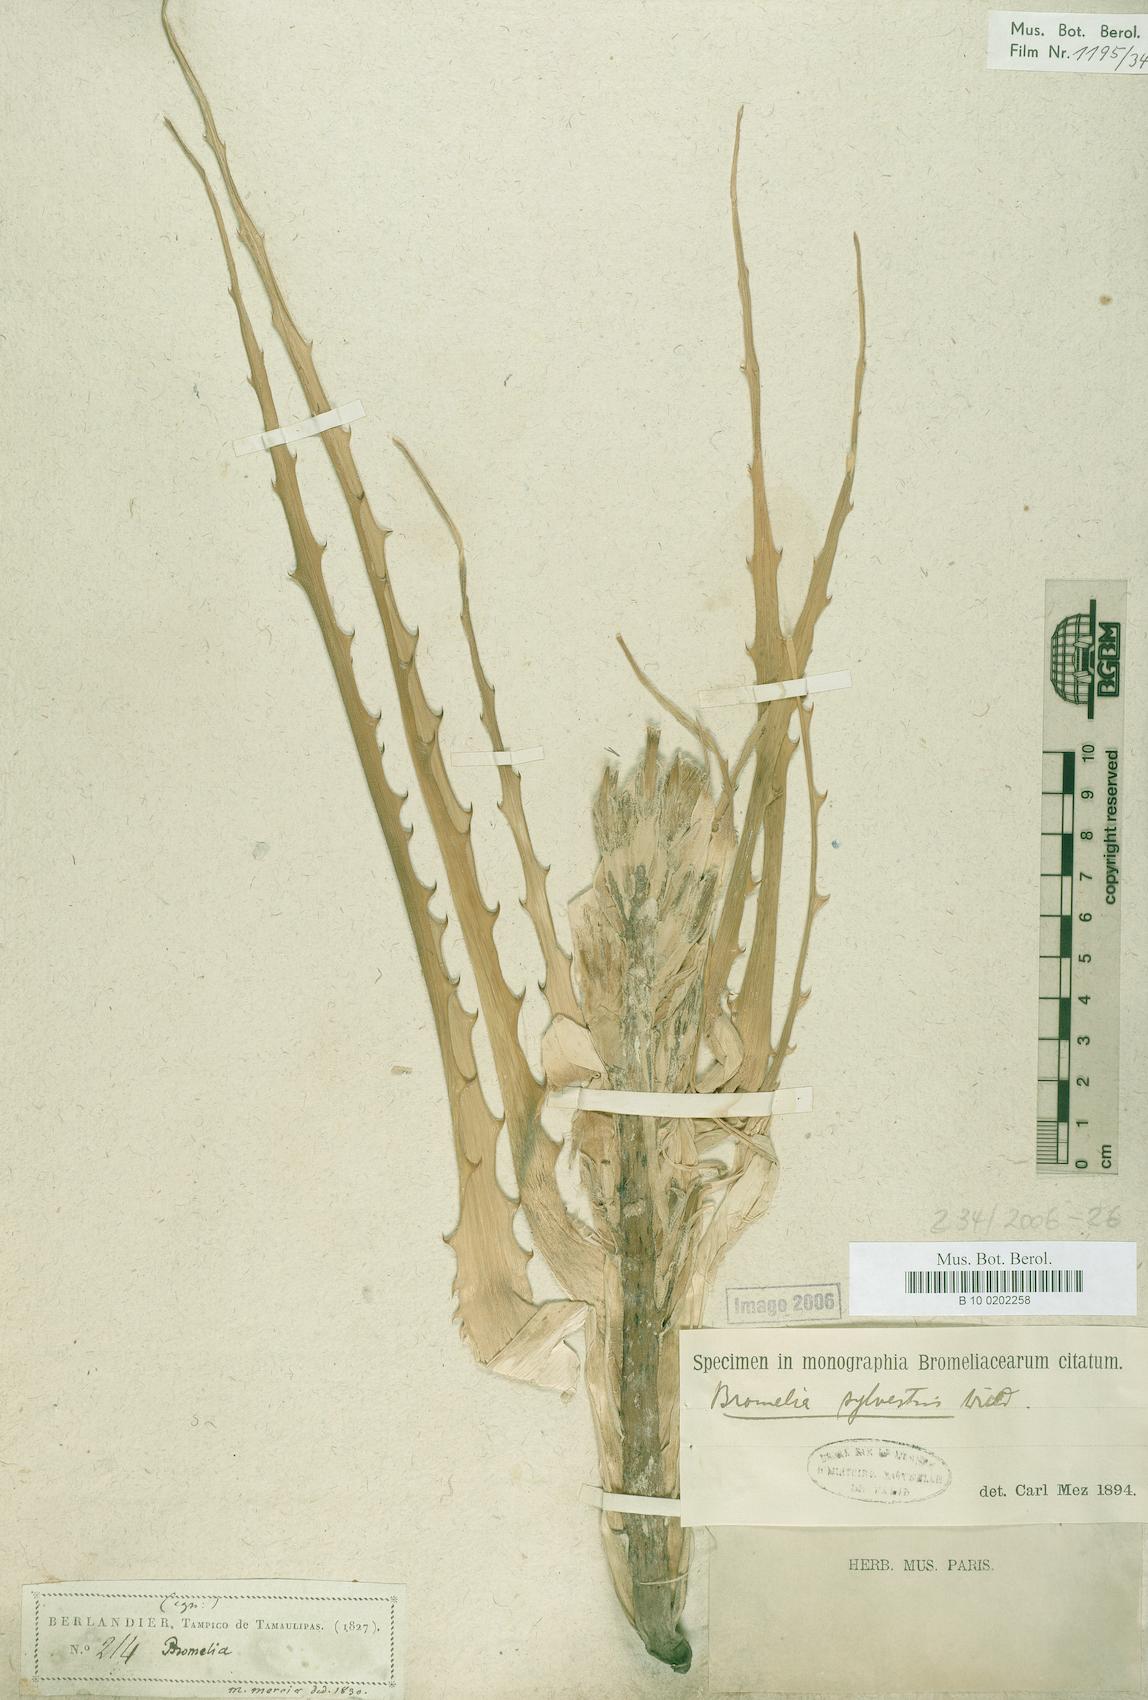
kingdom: Plantae
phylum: Tracheophyta
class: Liliopsida
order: Poales
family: Bromeliaceae
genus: Bromelia
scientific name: Bromelia pinguin
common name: Pinguin
